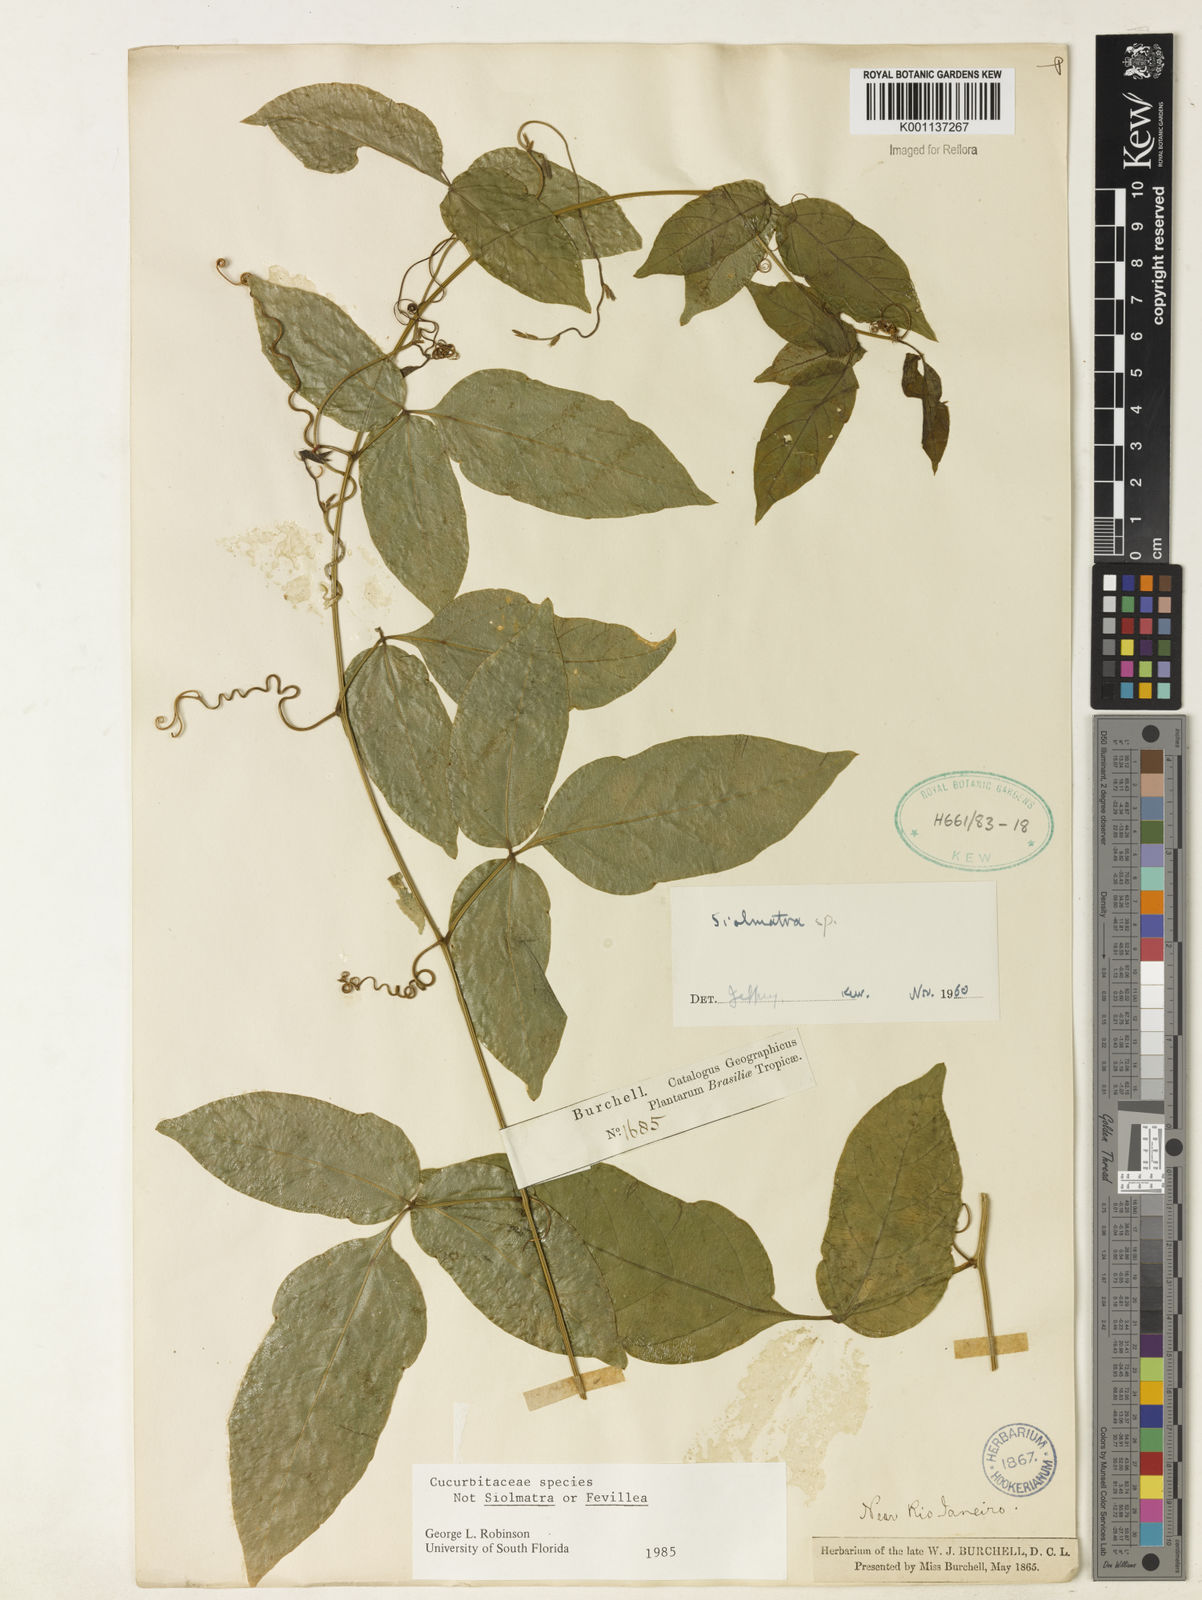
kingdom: Plantae
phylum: Tracheophyta
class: Magnoliopsida
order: Cucurbitales
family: Cucurbitaceae
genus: Siolmatra
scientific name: Siolmatra
